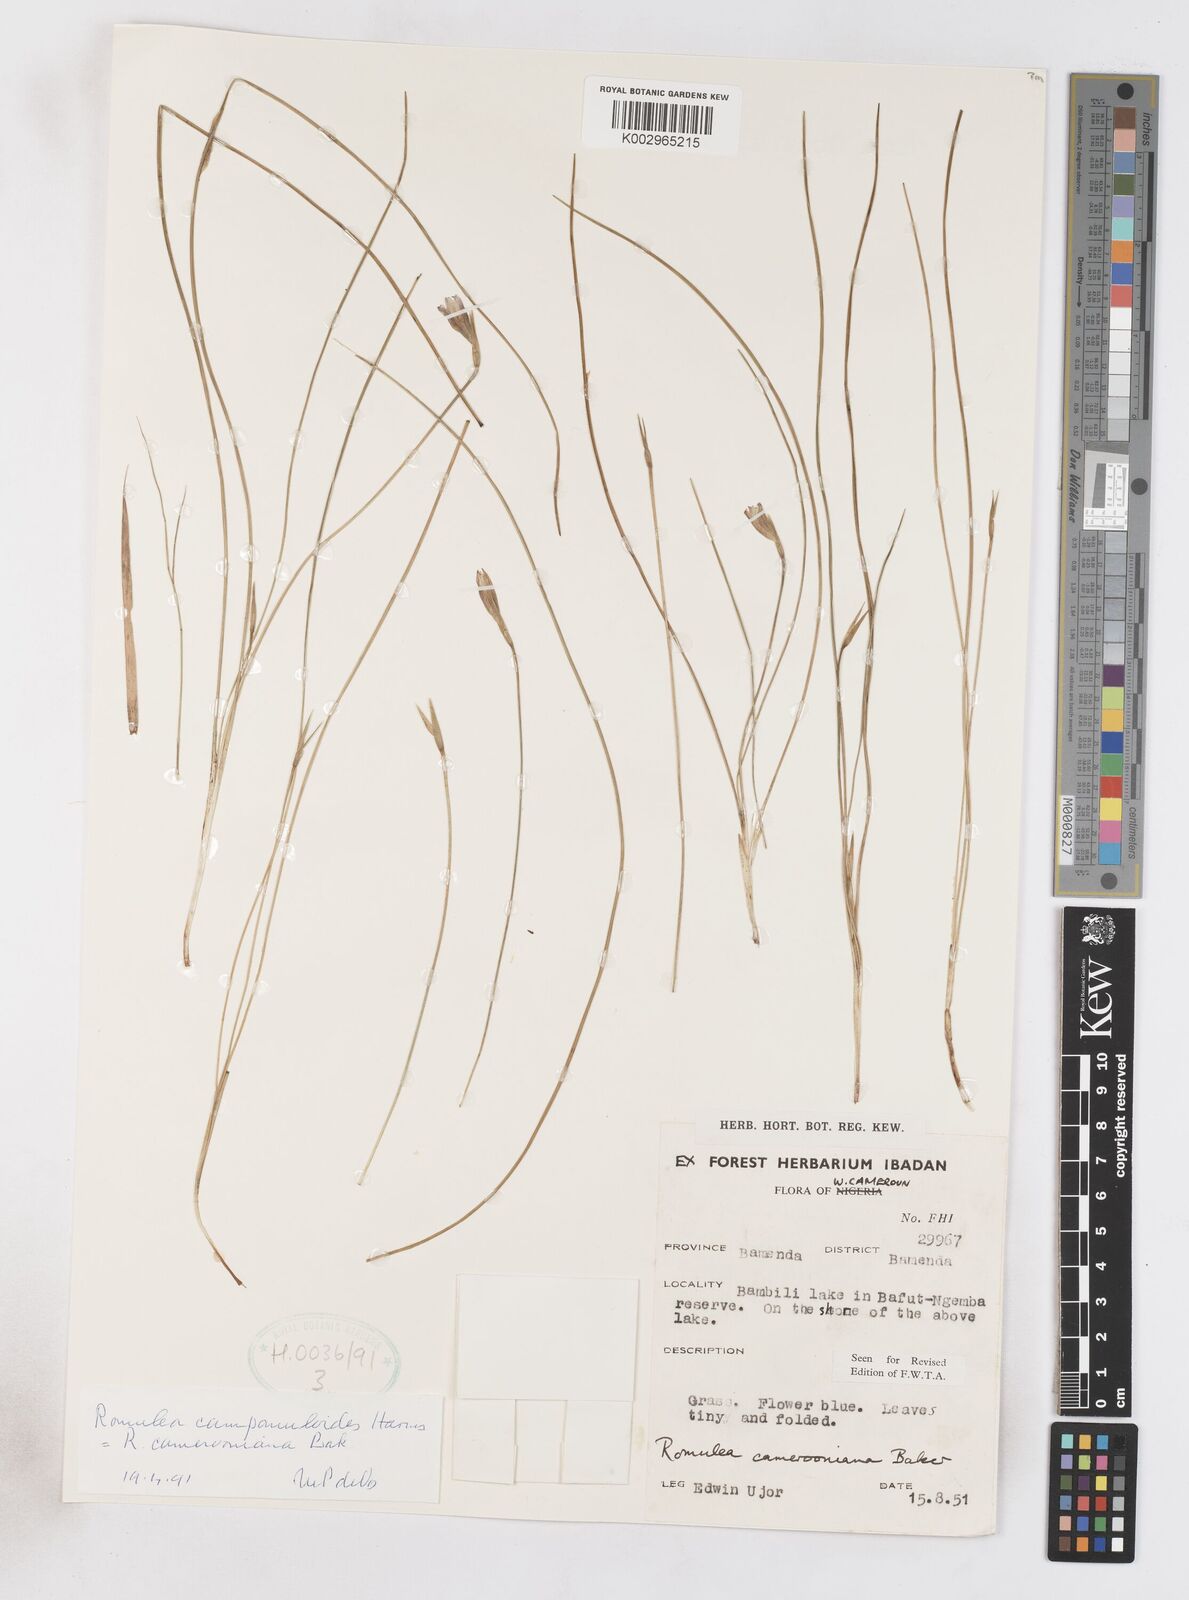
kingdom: Plantae
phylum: Tracheophyta
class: Liliopsida
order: Asparagales
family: Iridaceae
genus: Romulea
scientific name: Romulea camerooniana
